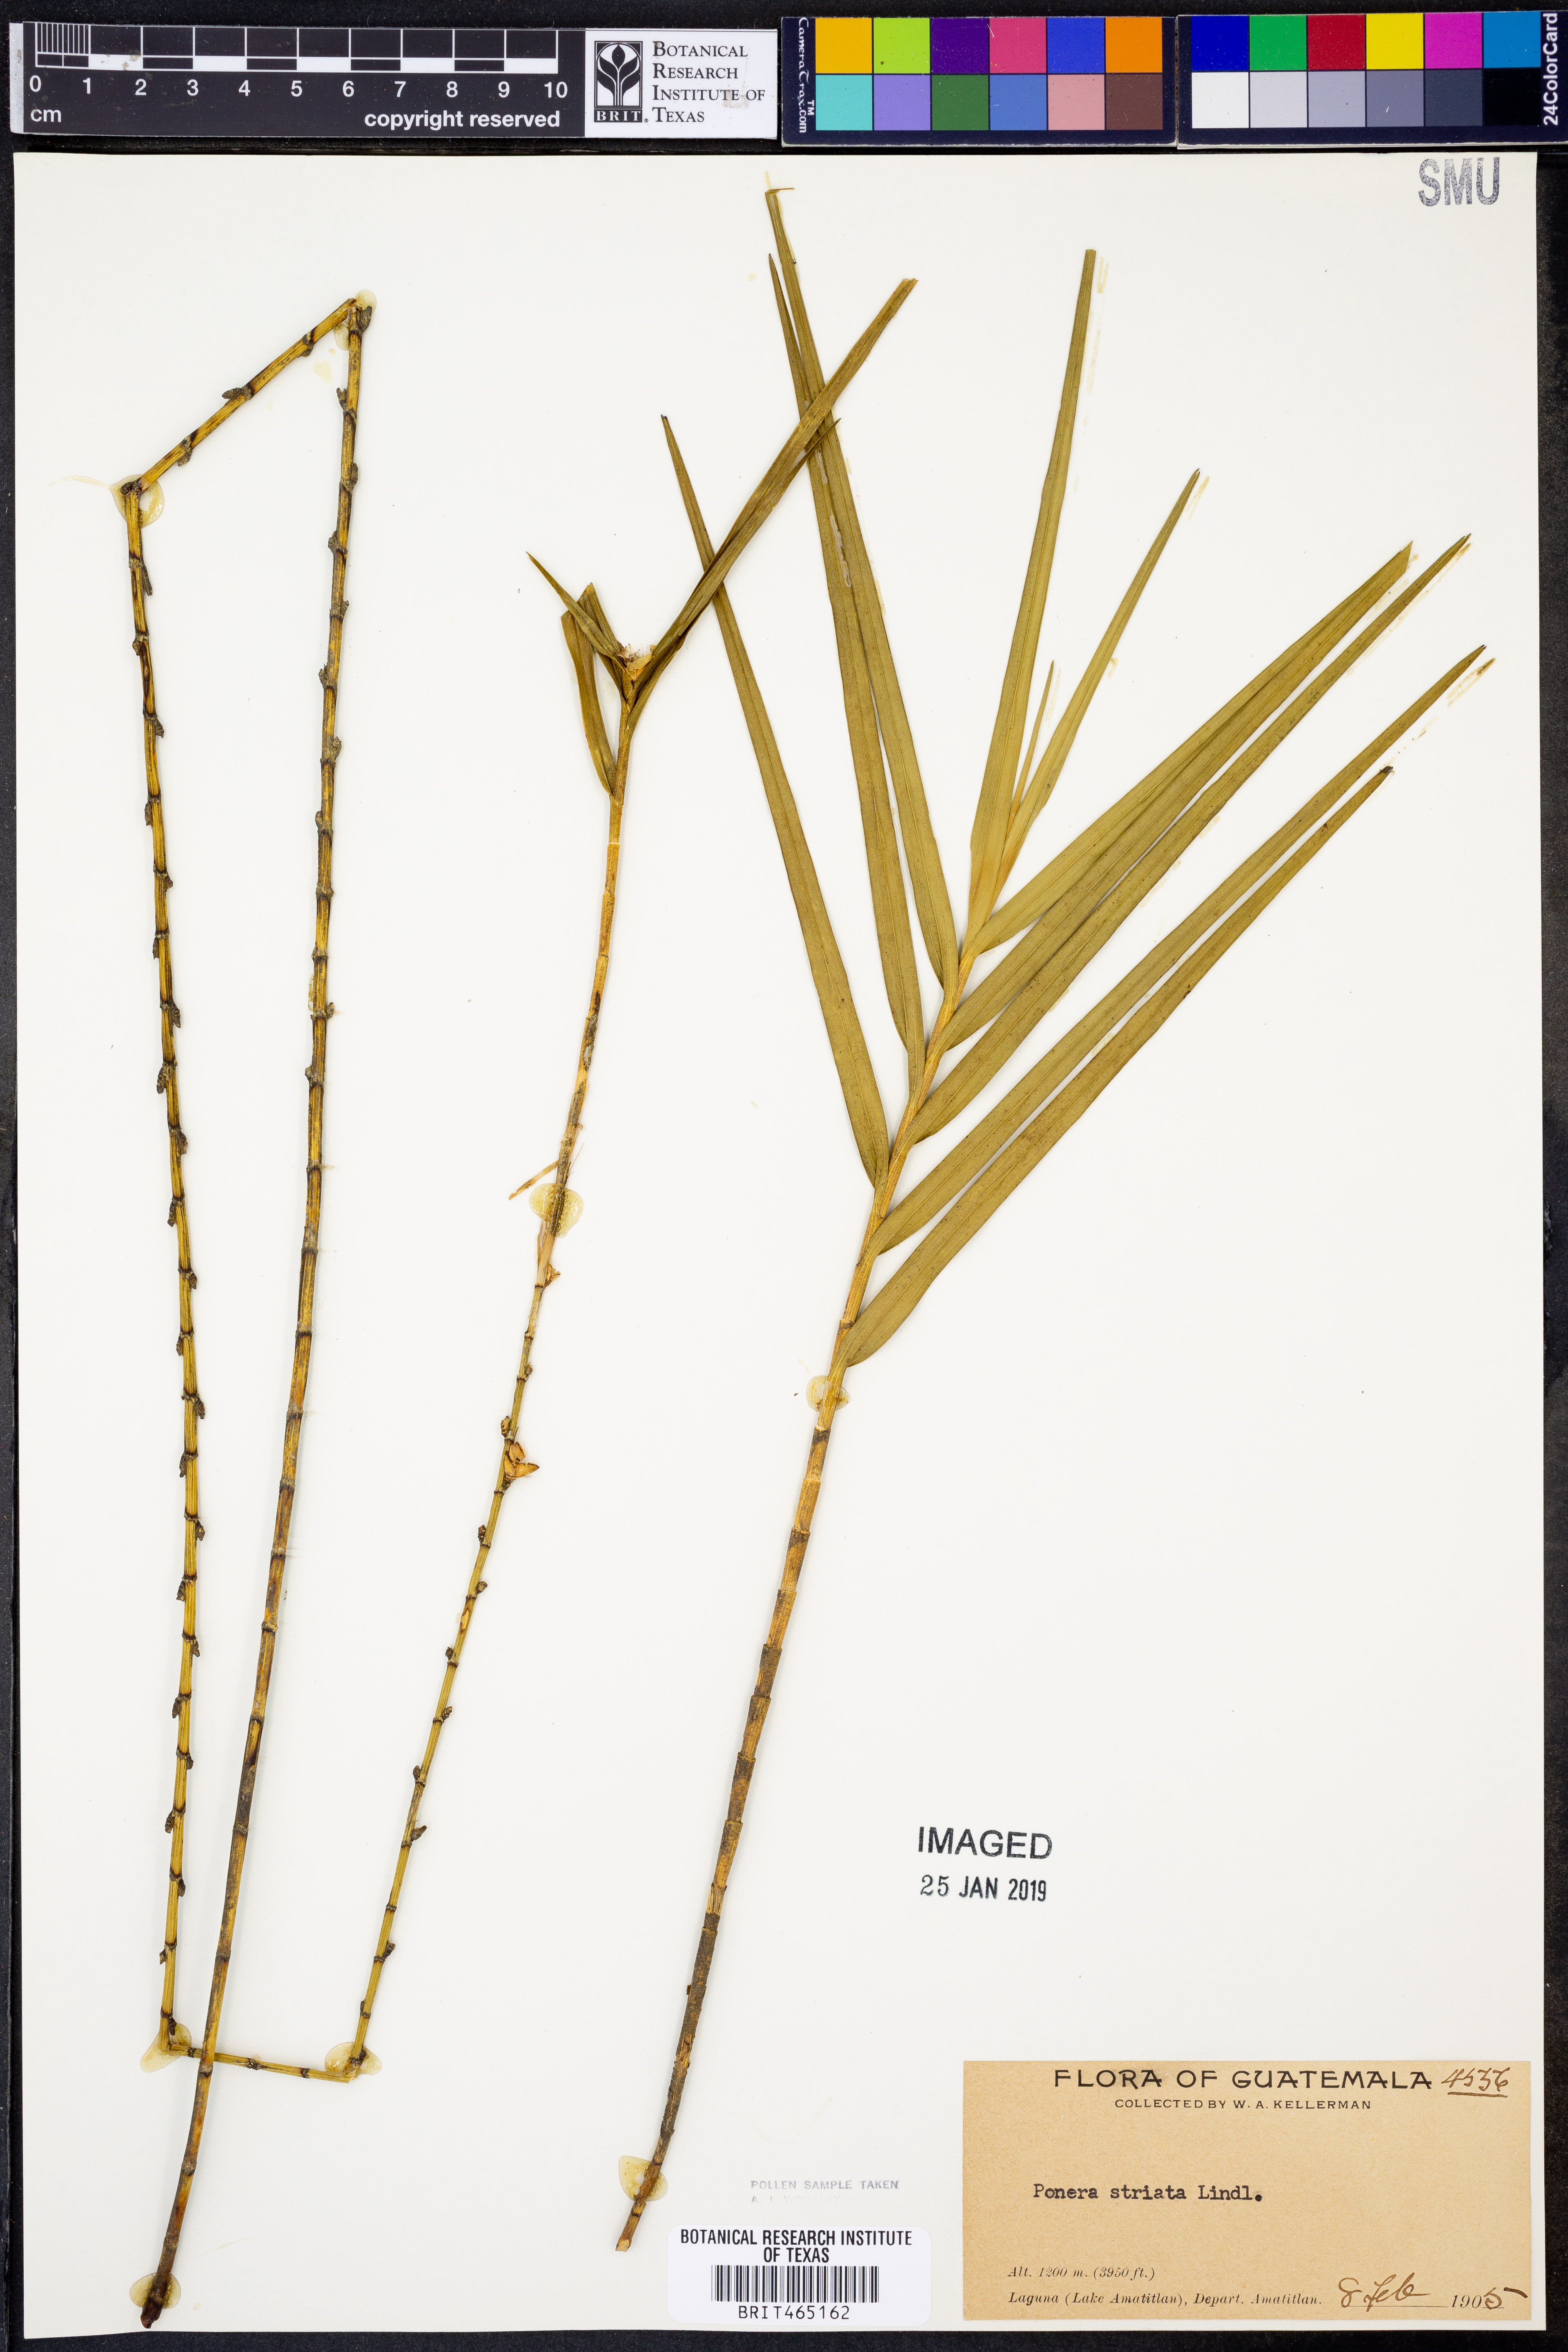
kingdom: Plantae
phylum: Tracheophyta
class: Liliopsida
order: Asparagales
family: Orchidaceae
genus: Nemaconia
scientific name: Nemaconia striata
